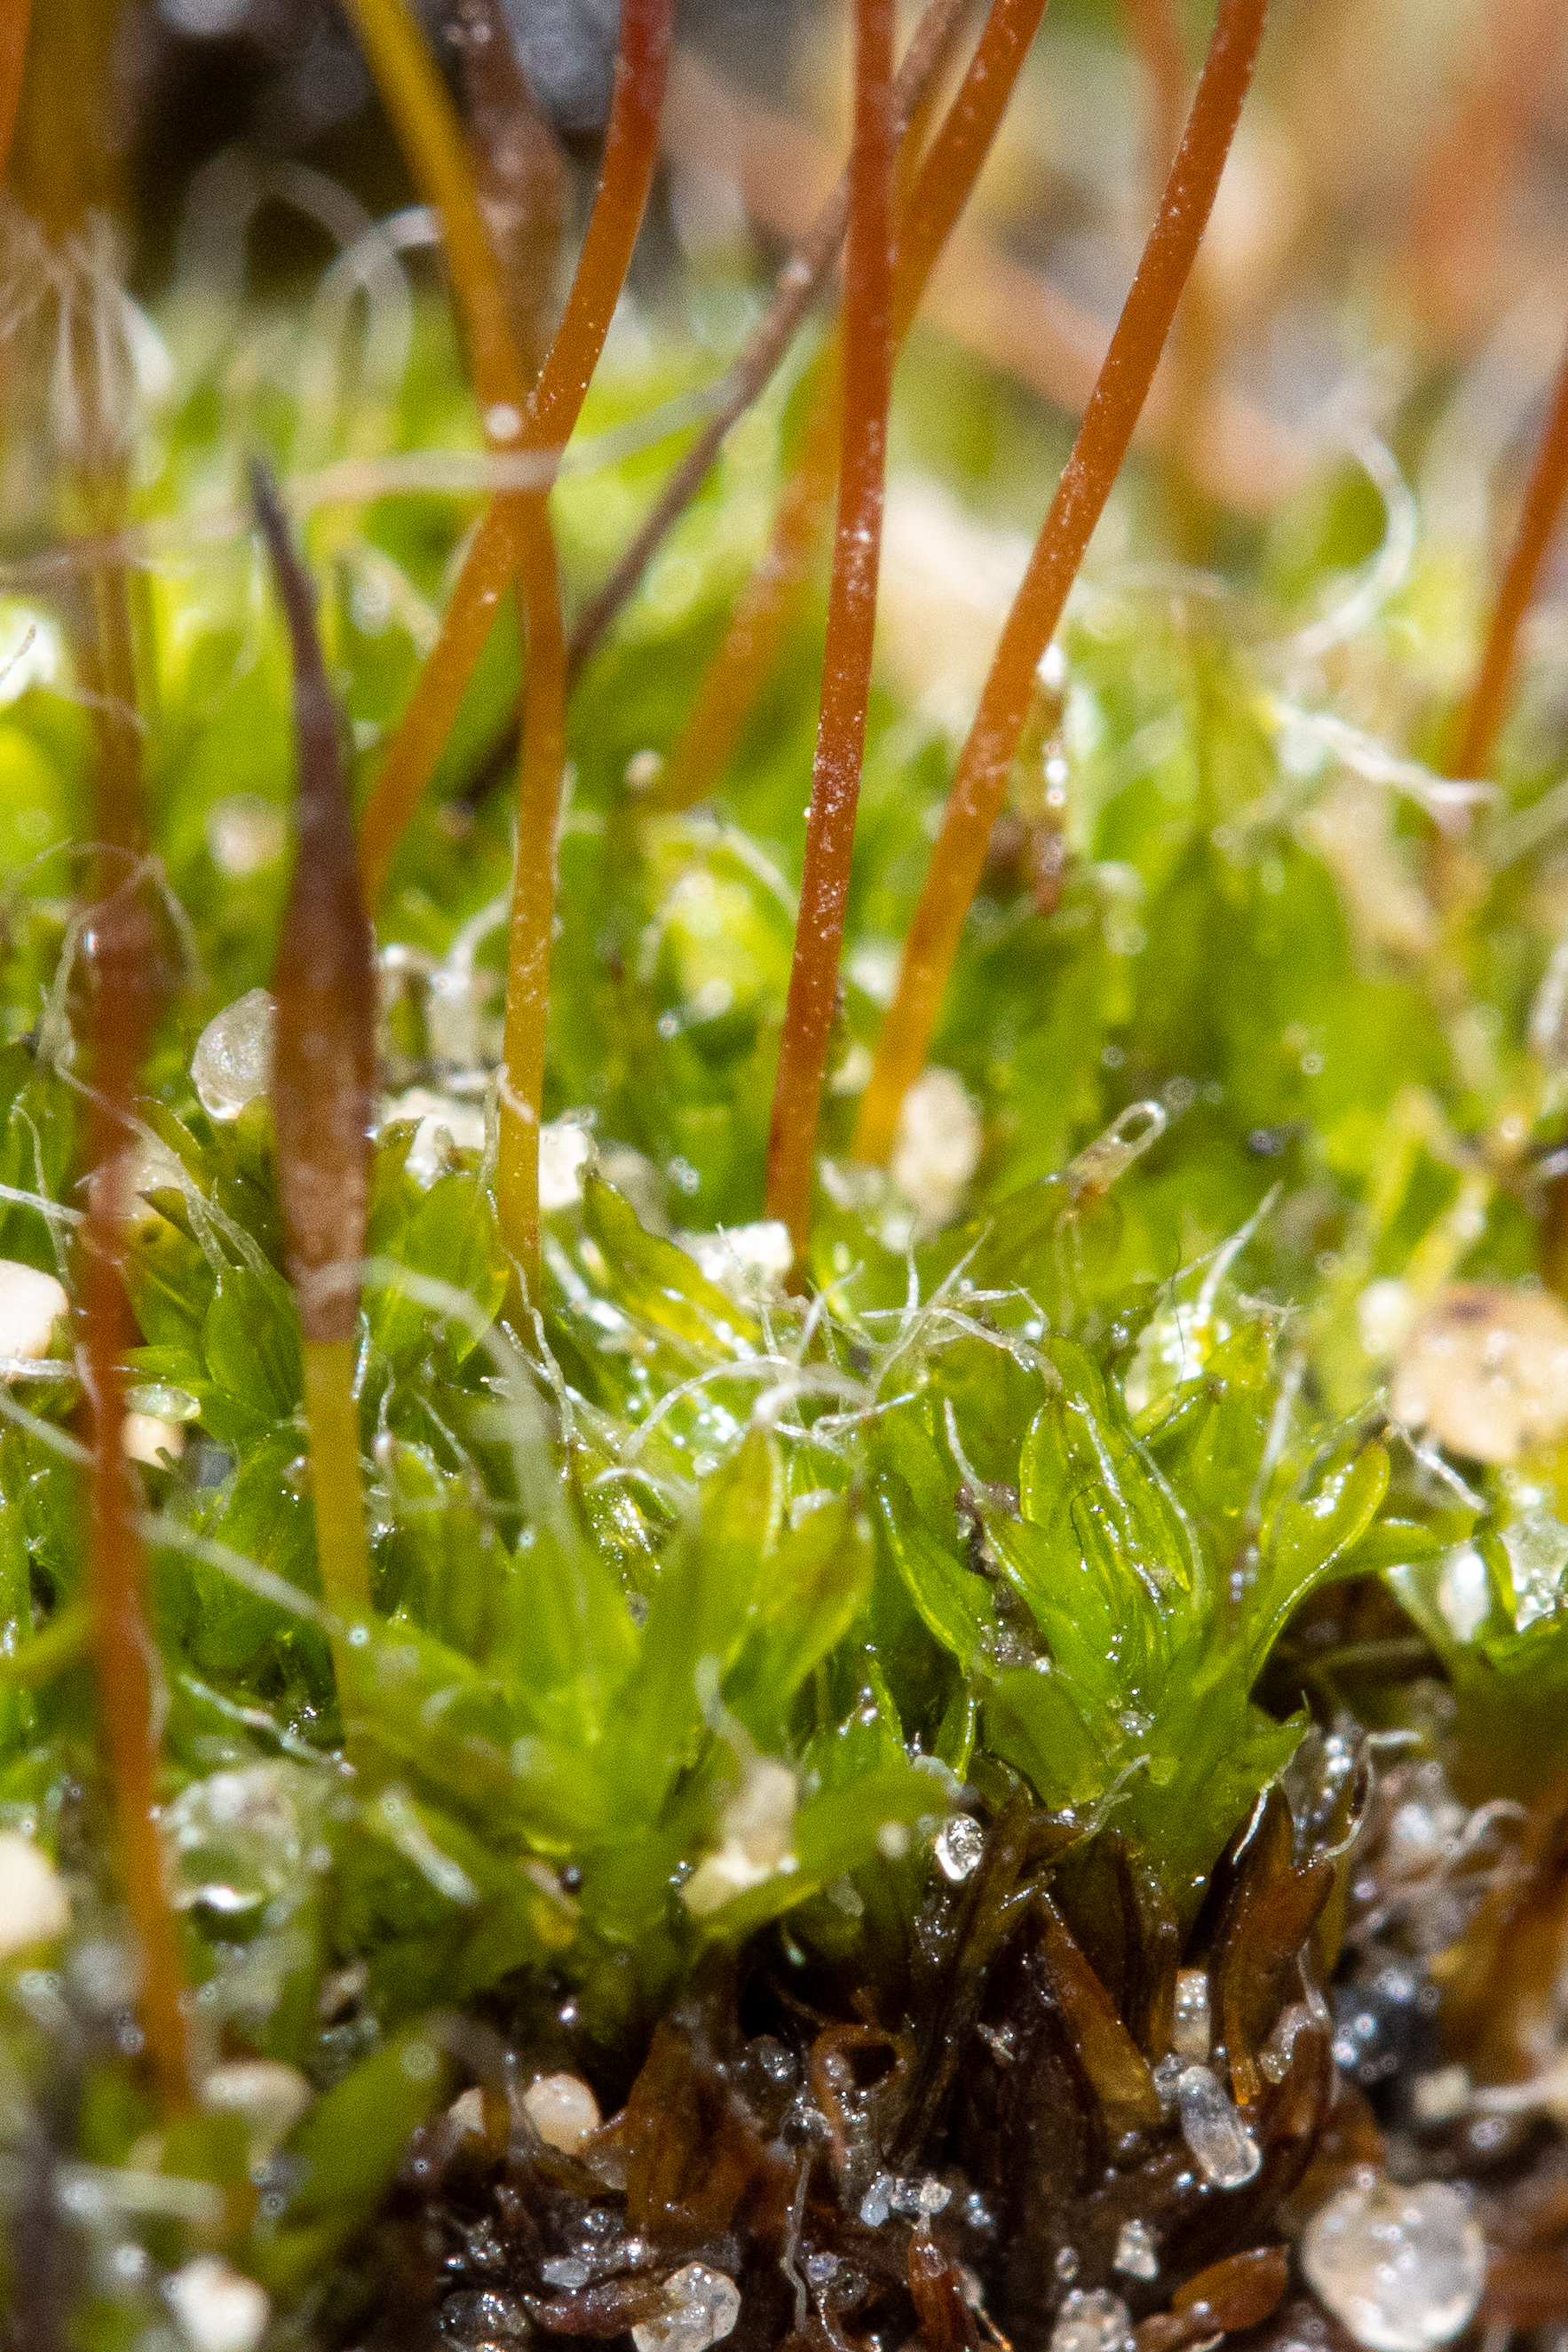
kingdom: Plantae
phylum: Bryophyta
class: Bryopsida
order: Pottiales
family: Pottiaceae
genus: Tortula
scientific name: Tortula muralis
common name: Mur-snotand
